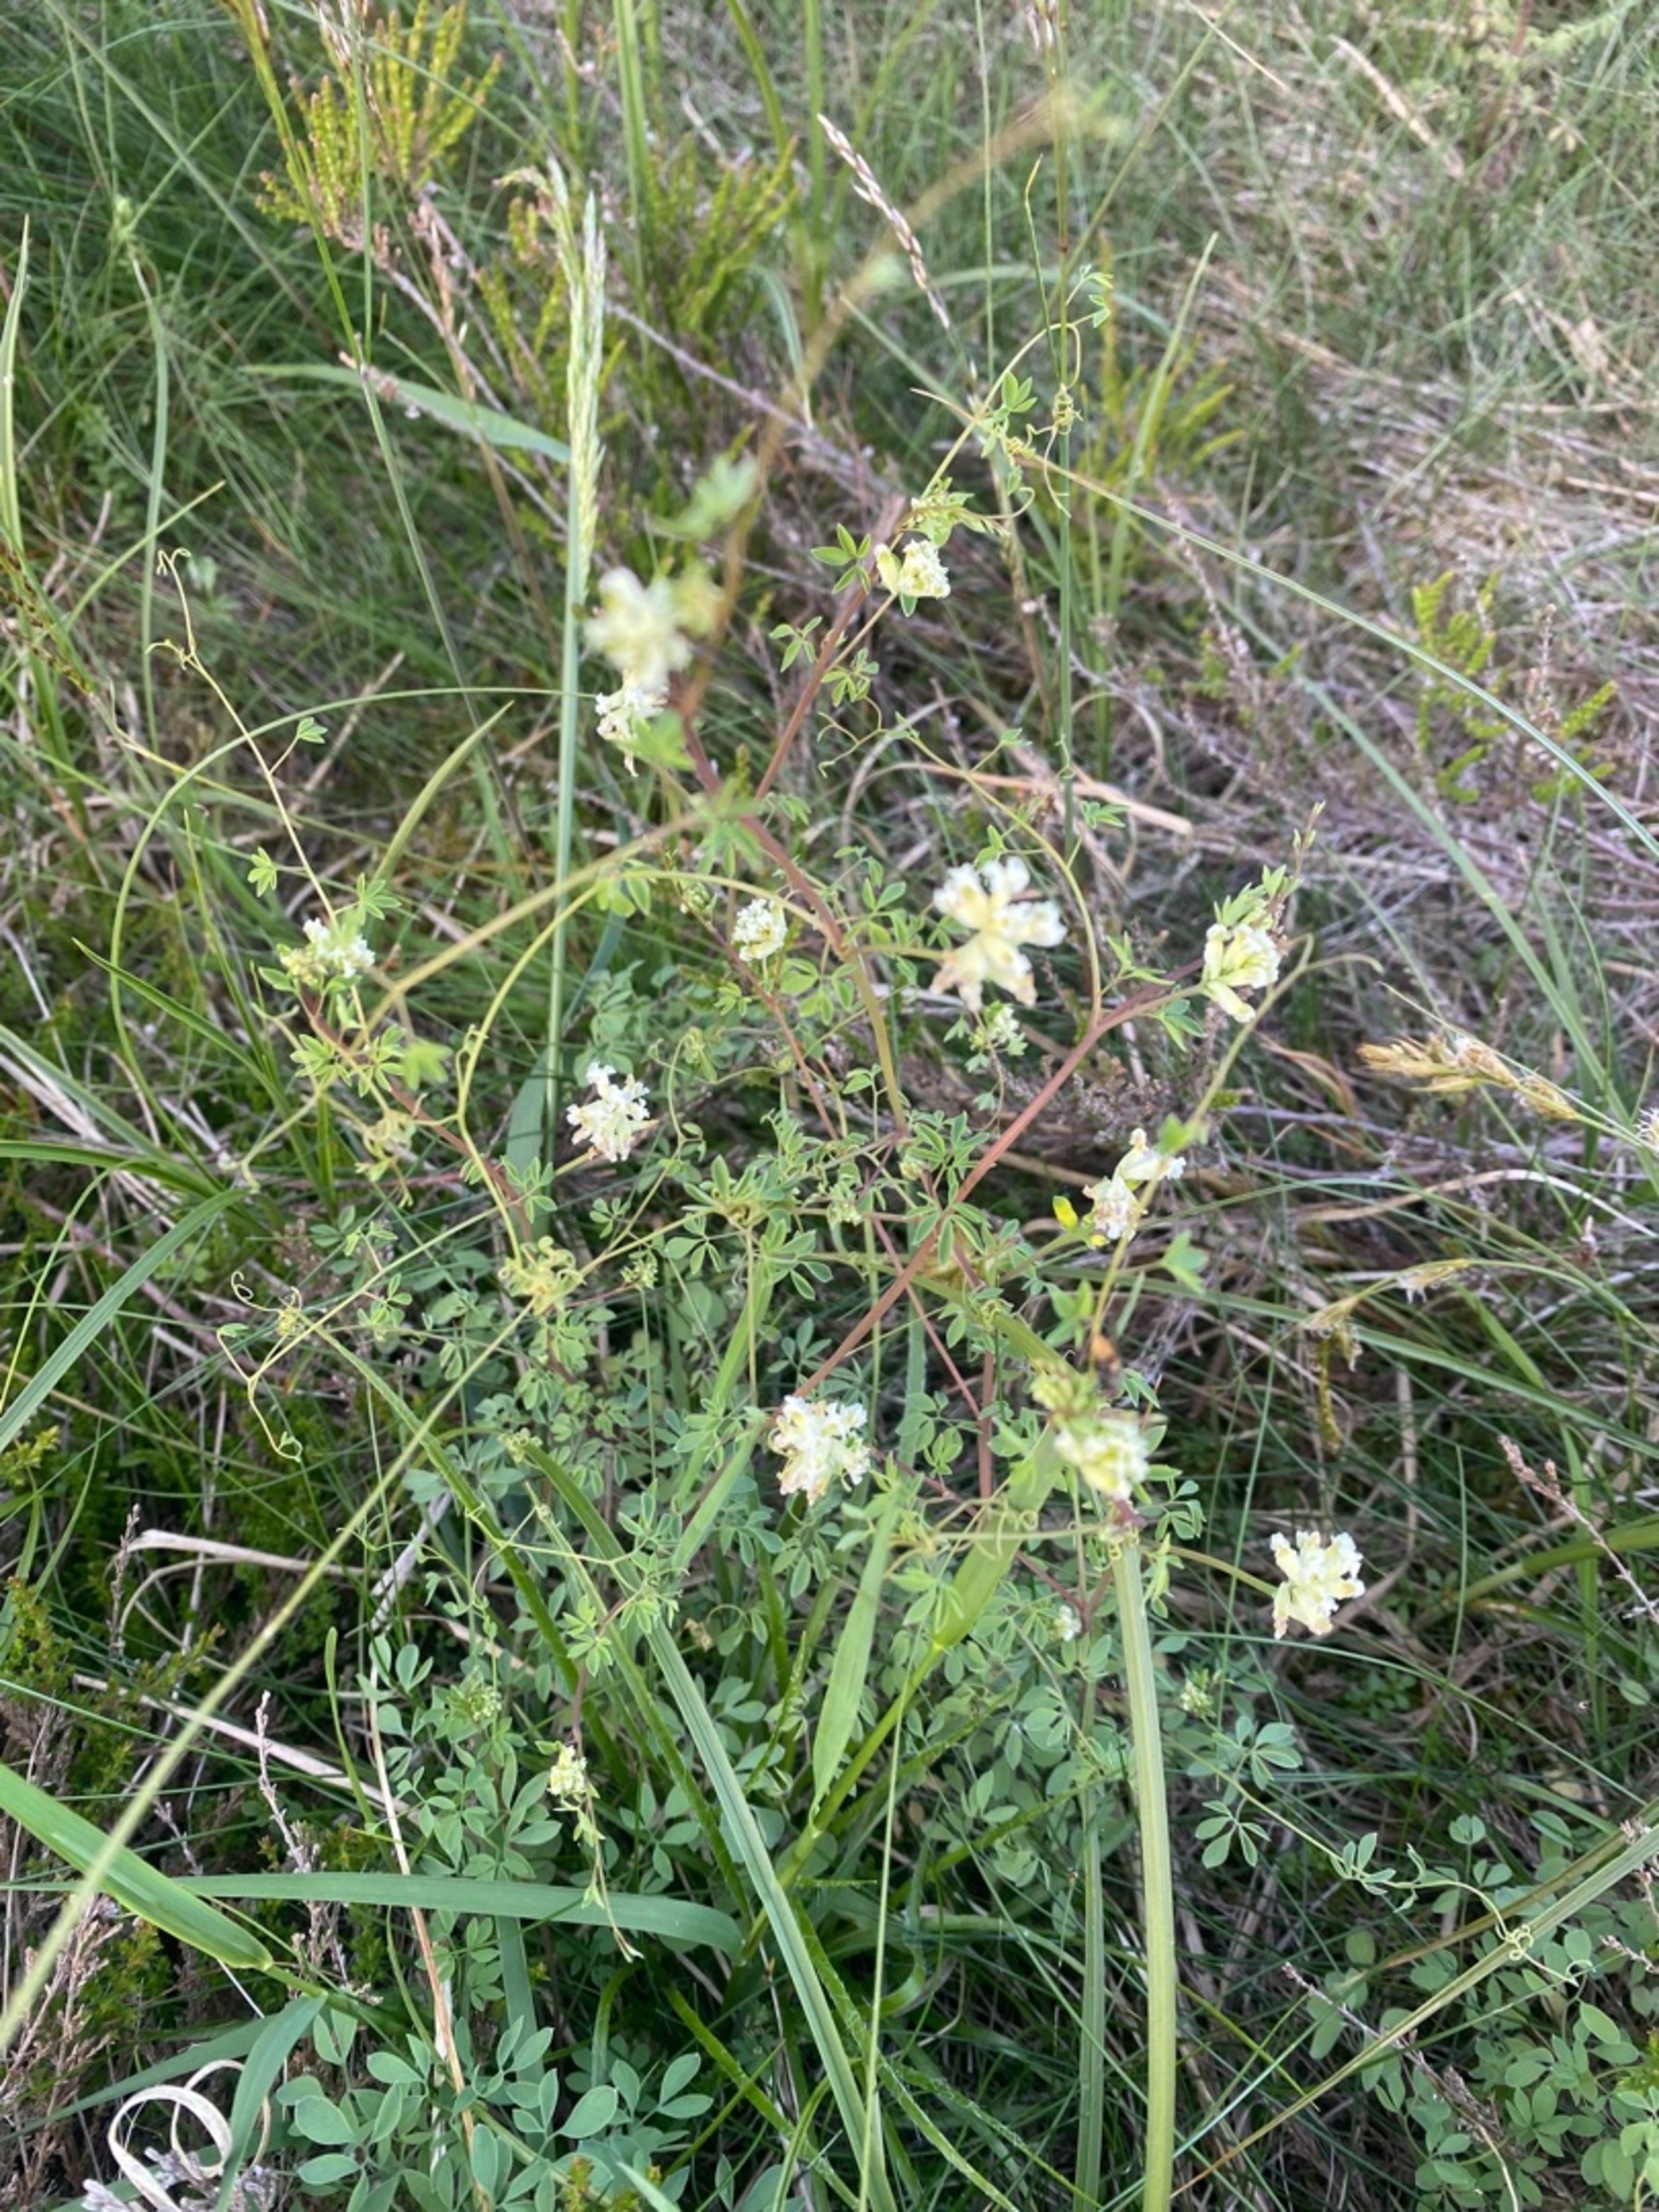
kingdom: Plantae
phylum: Tracheophyta
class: Magnoliopsida
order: Ranunculales
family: Papaveraceae
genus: Ceratocapnos
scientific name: Ceratocapnos claviculata
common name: Klatrende lærkespore
